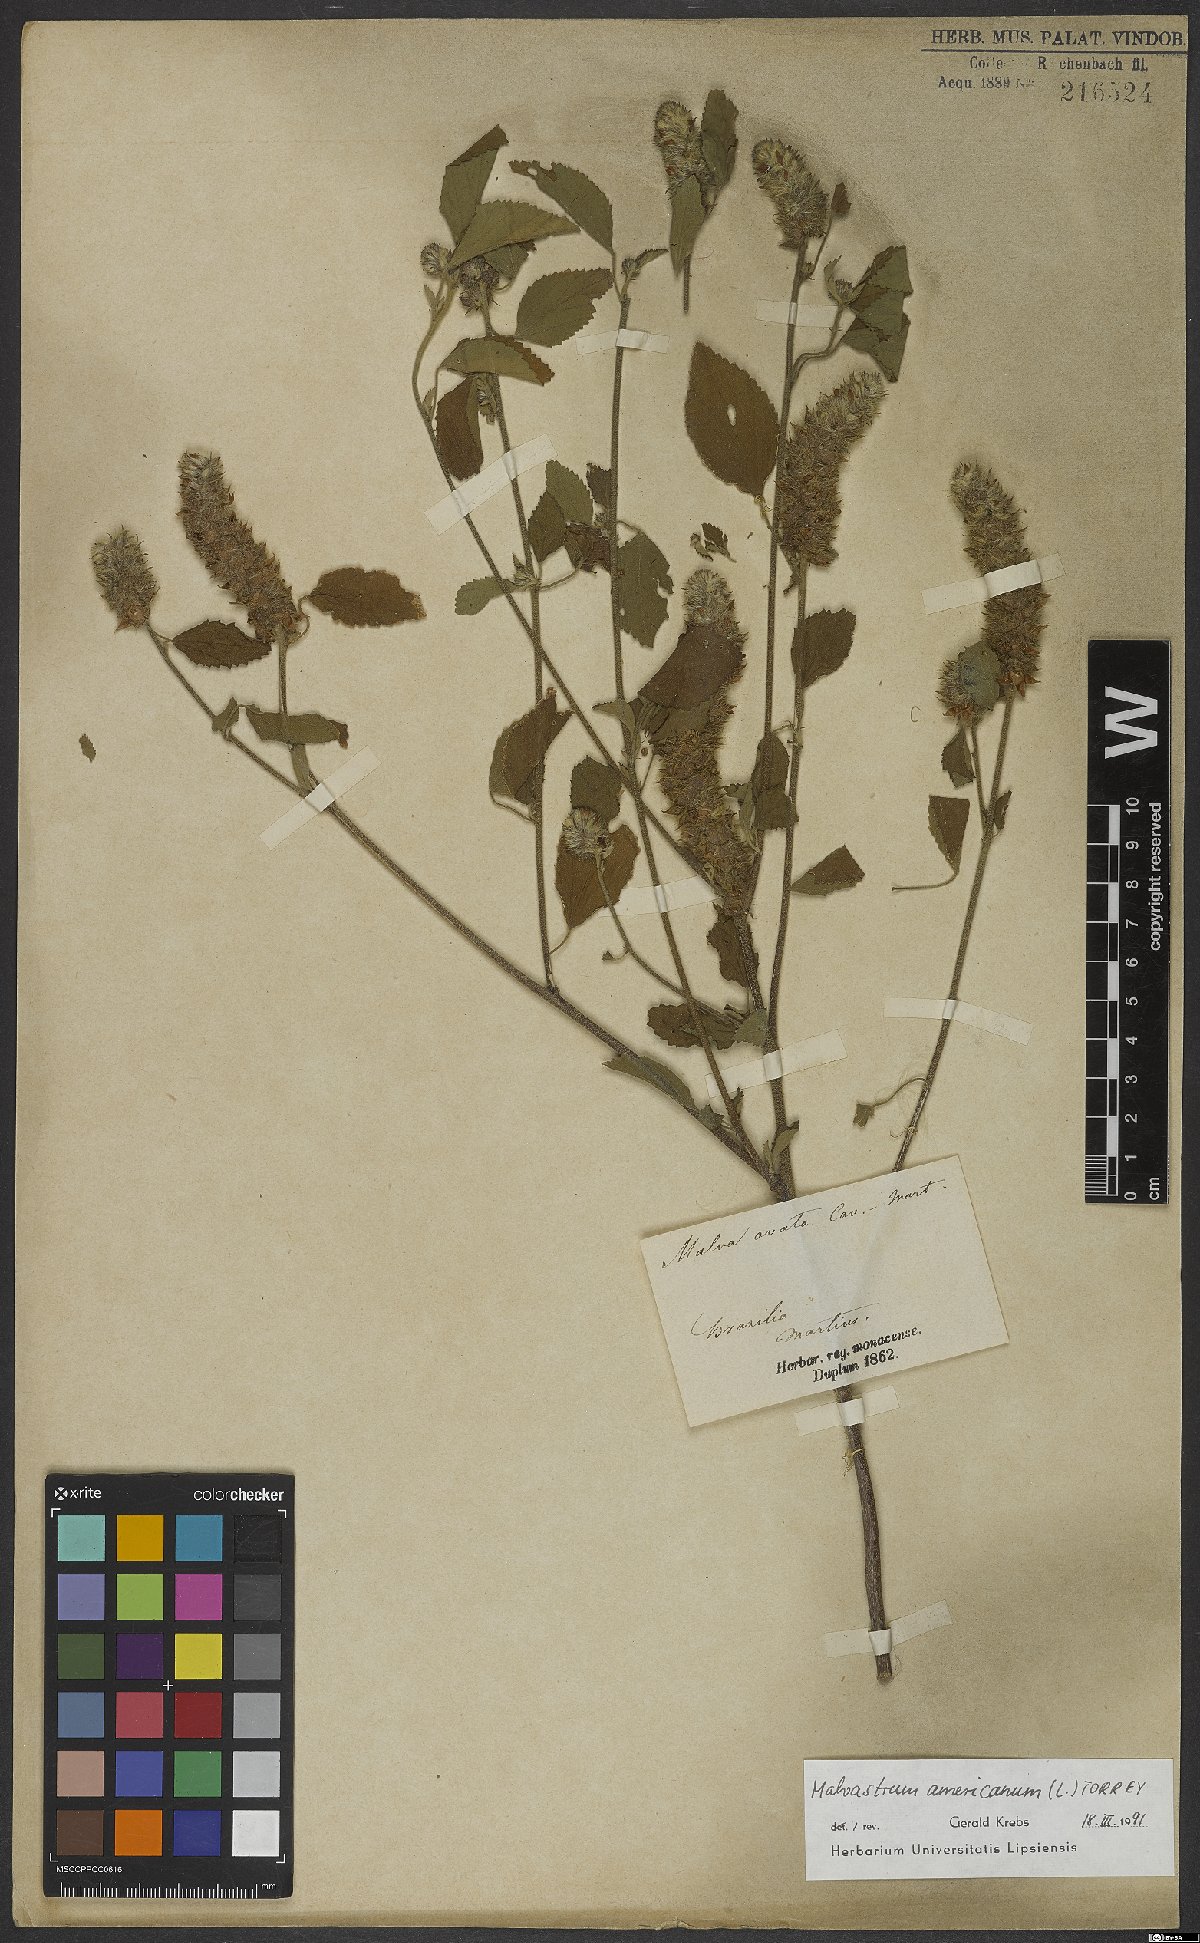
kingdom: Plantae
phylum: Tracheophyta
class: Magnoliopsida
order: Malvales
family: Malvaceae
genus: Malvastrum
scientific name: Malvastrum americanum
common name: Spiked malvastrum
